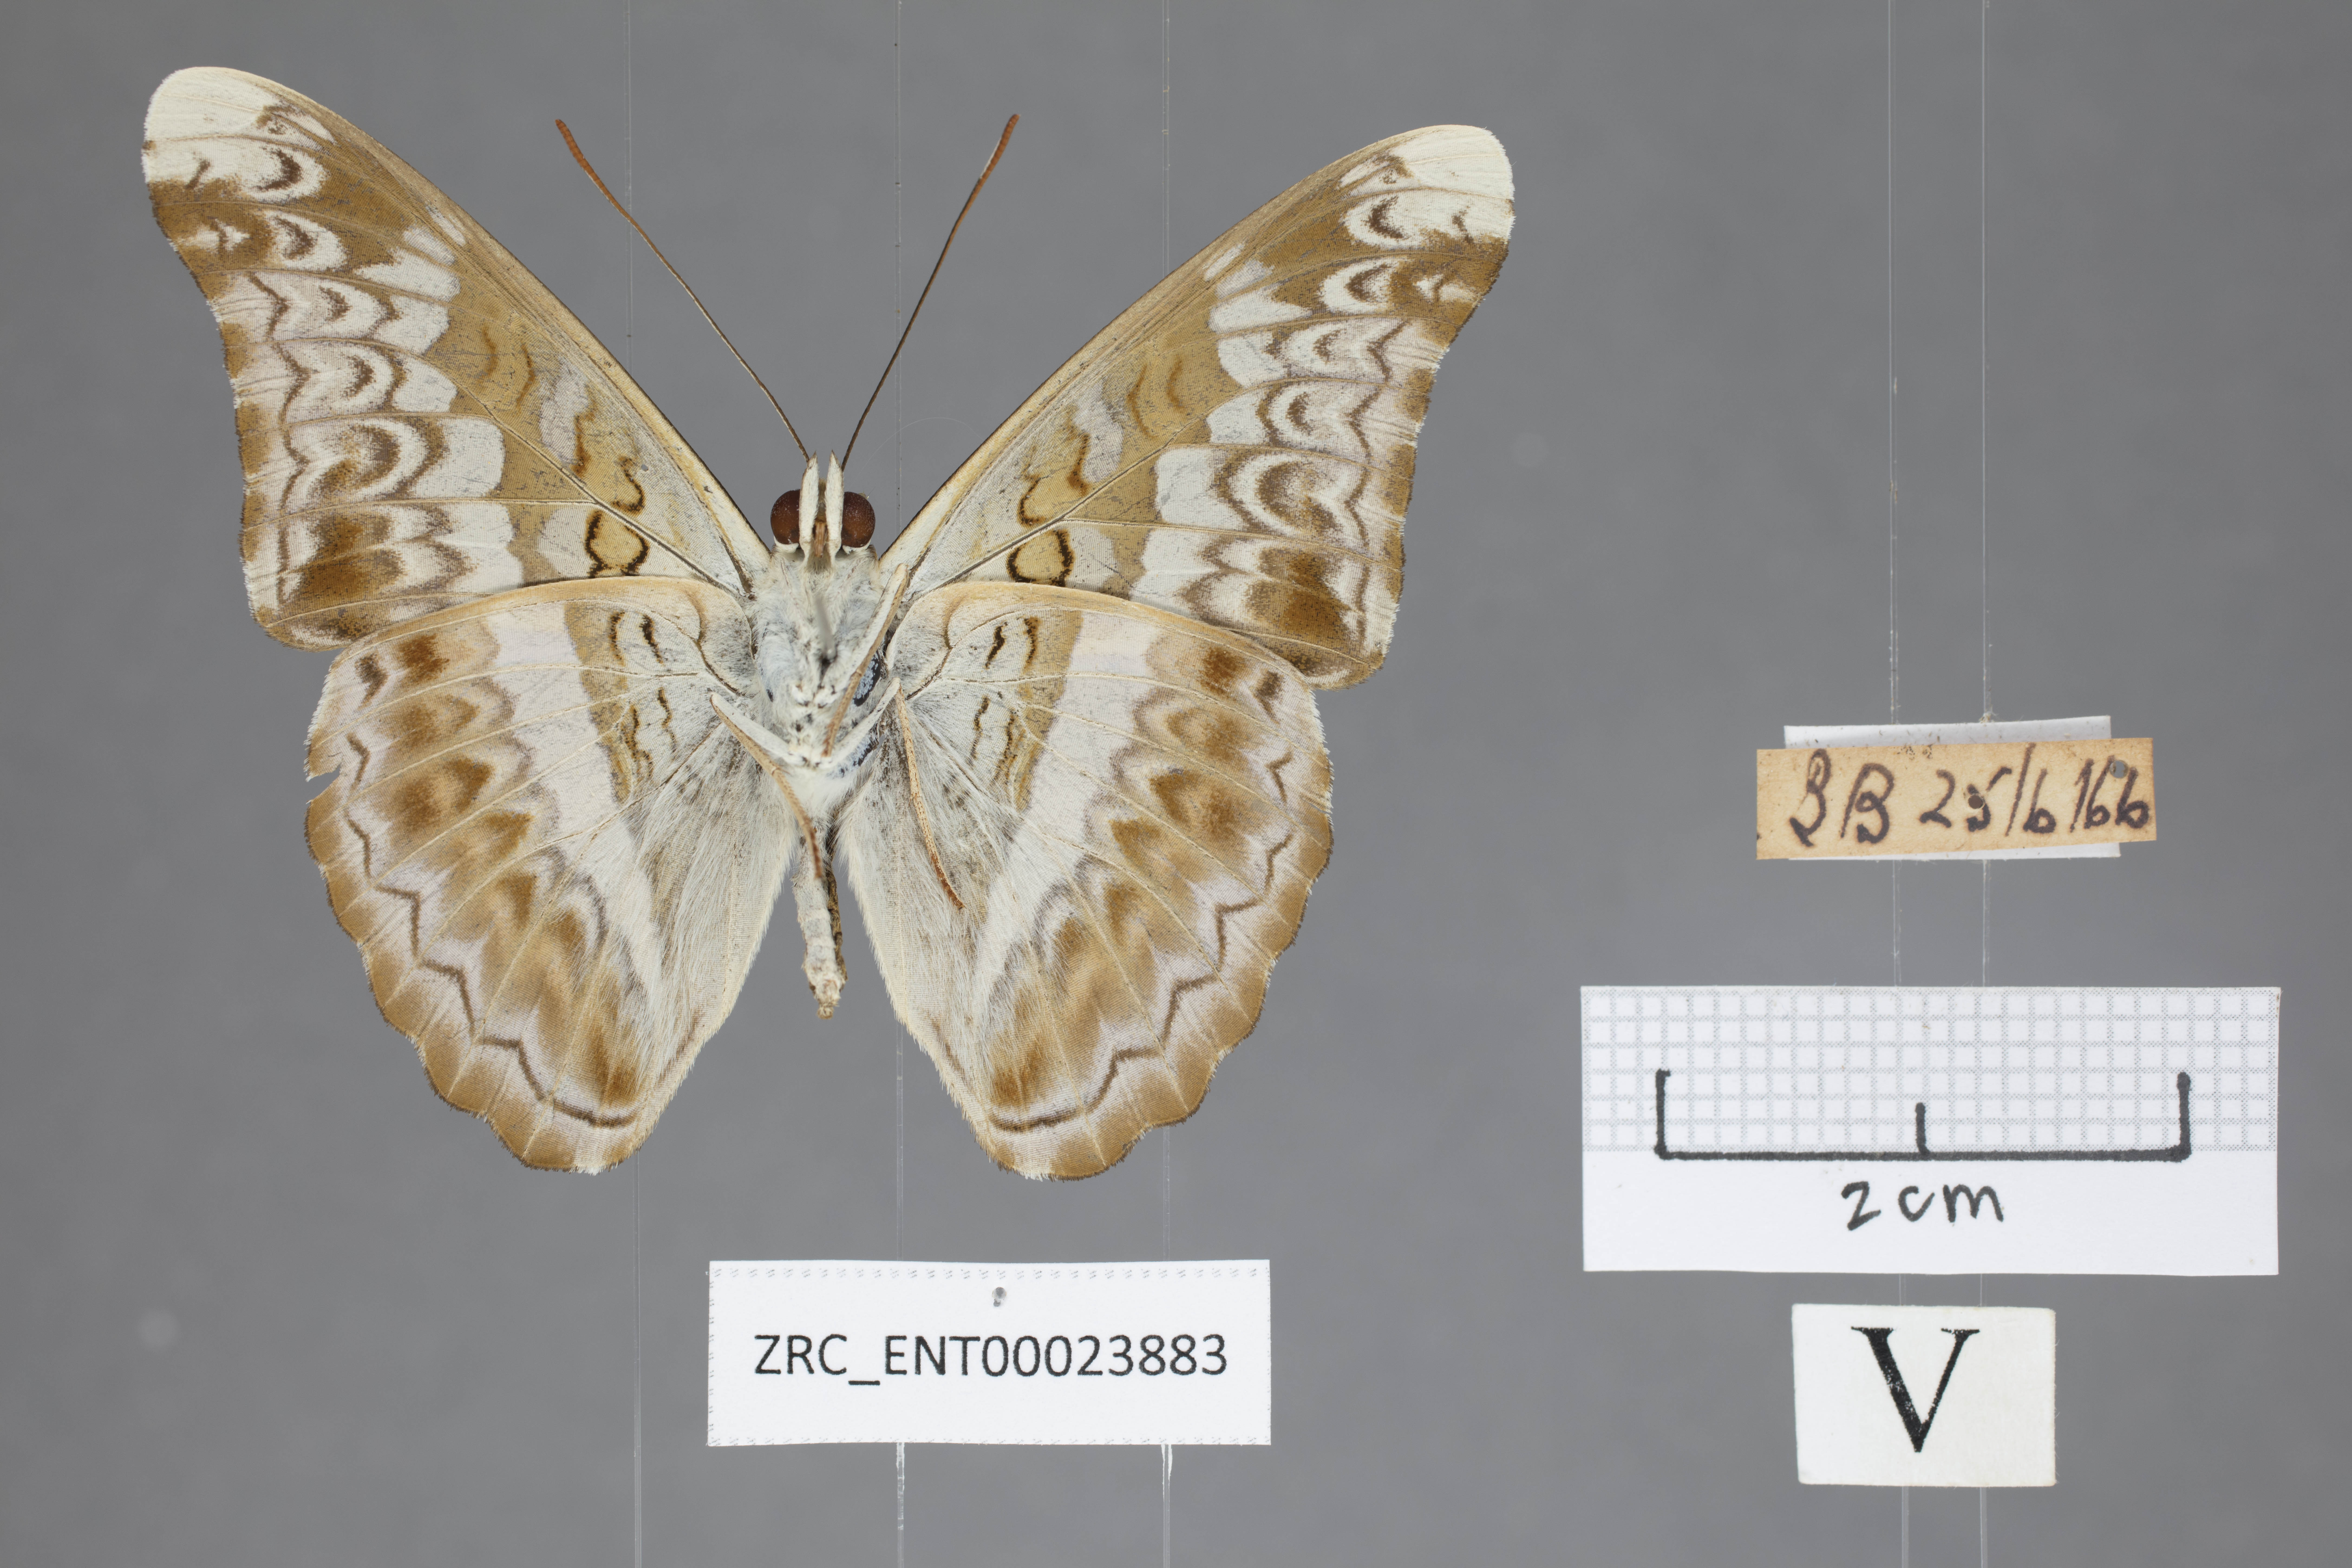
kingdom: Animalia
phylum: Arthropoda
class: Insecta
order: Lepidoptera
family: Nymphalidae
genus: Lebadea
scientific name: Lebadea martha
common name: Knight
